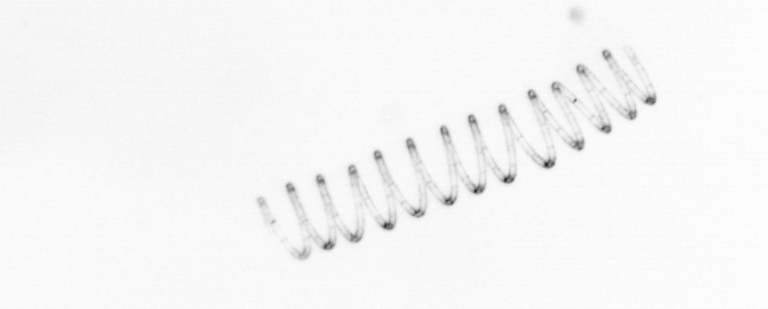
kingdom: Chromista
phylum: Ochrophyta
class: Bacillariophyceae
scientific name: Bacillariophyceae
